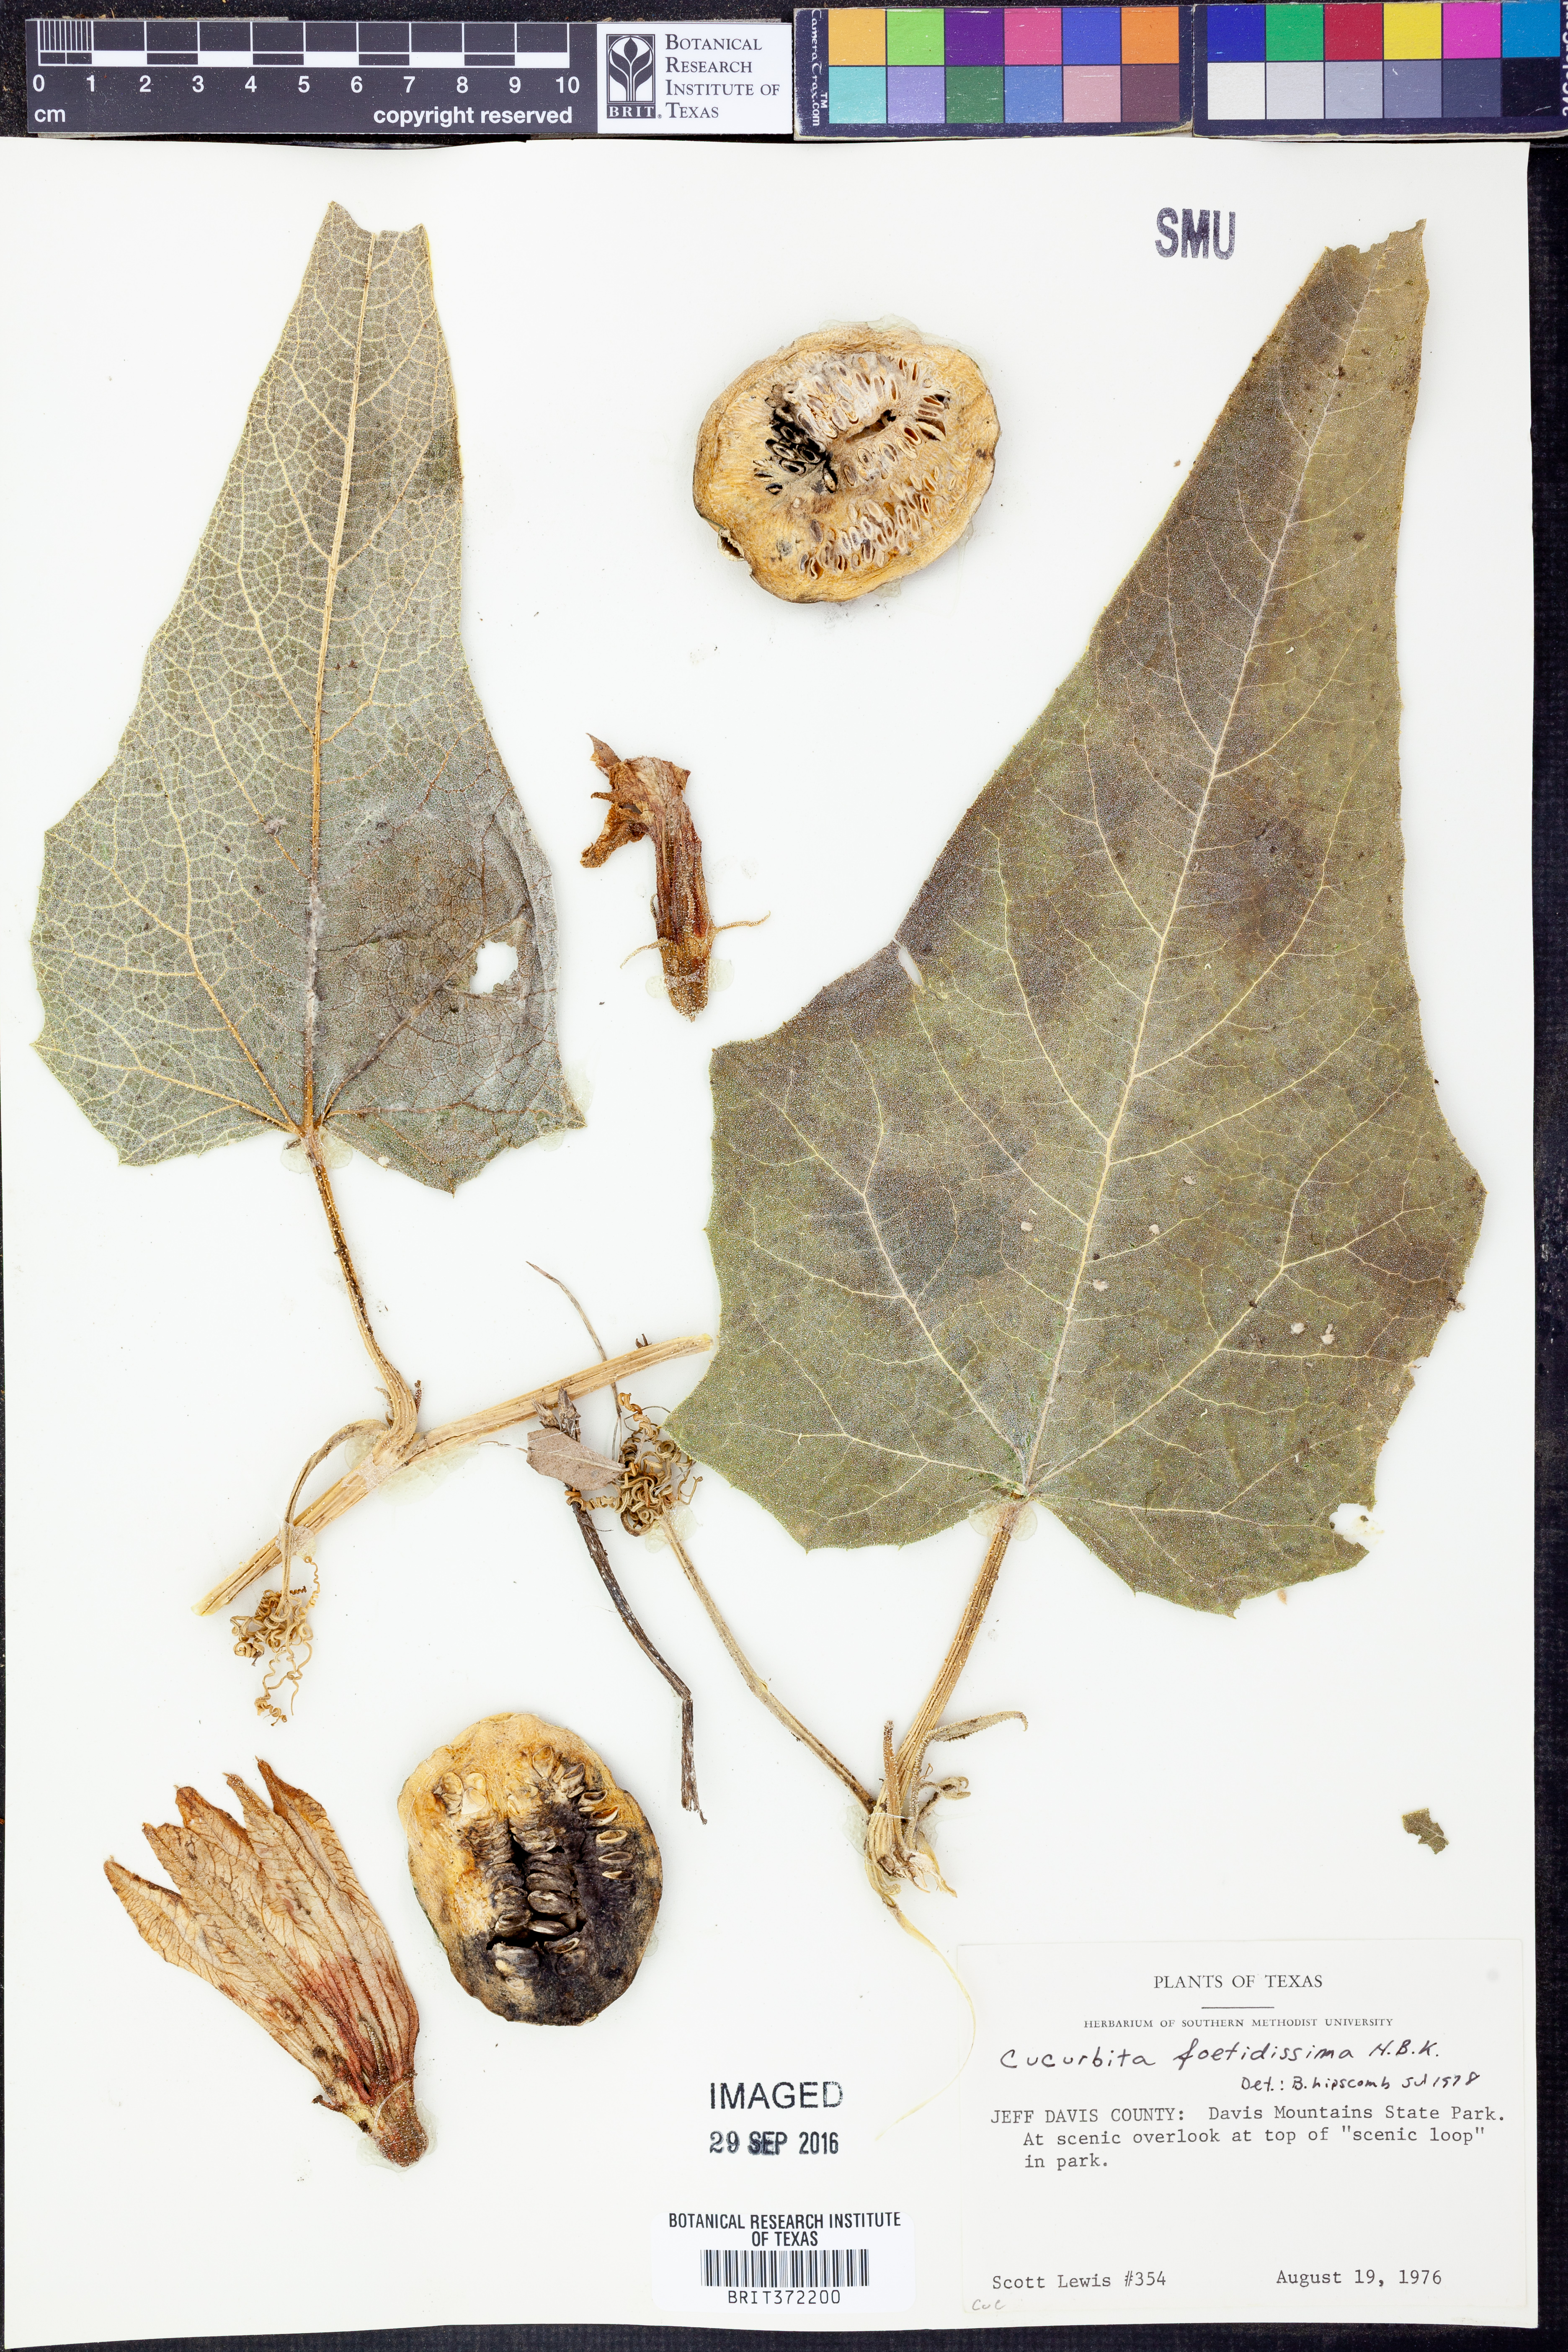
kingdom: Plantae
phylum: Tracheophyta
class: Magnoliopsida
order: Cucurbitales
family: Cucurbitaceae
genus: Cucurbita
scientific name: Cucurbita foetidissima
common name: Buffalo gourd
